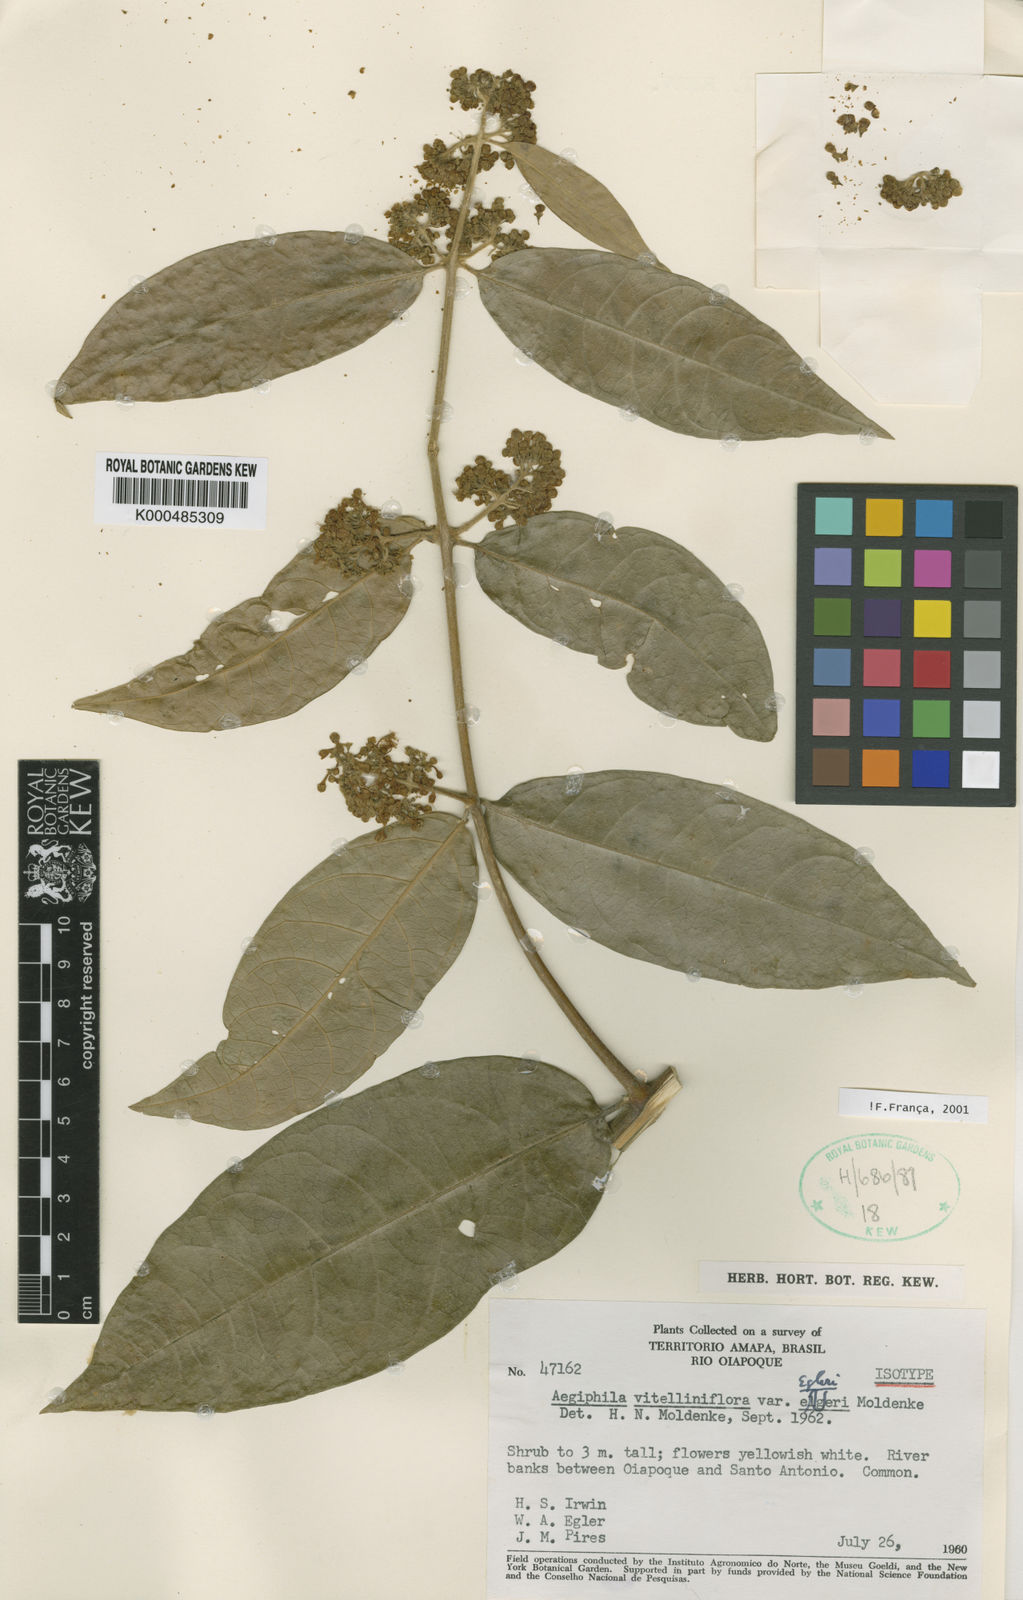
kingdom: Plantae
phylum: Tracheophyta
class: Magnoliopsida
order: Lamiales
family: Lamiaceae
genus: Aegiphila
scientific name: Aegiphila vitelliniflora
